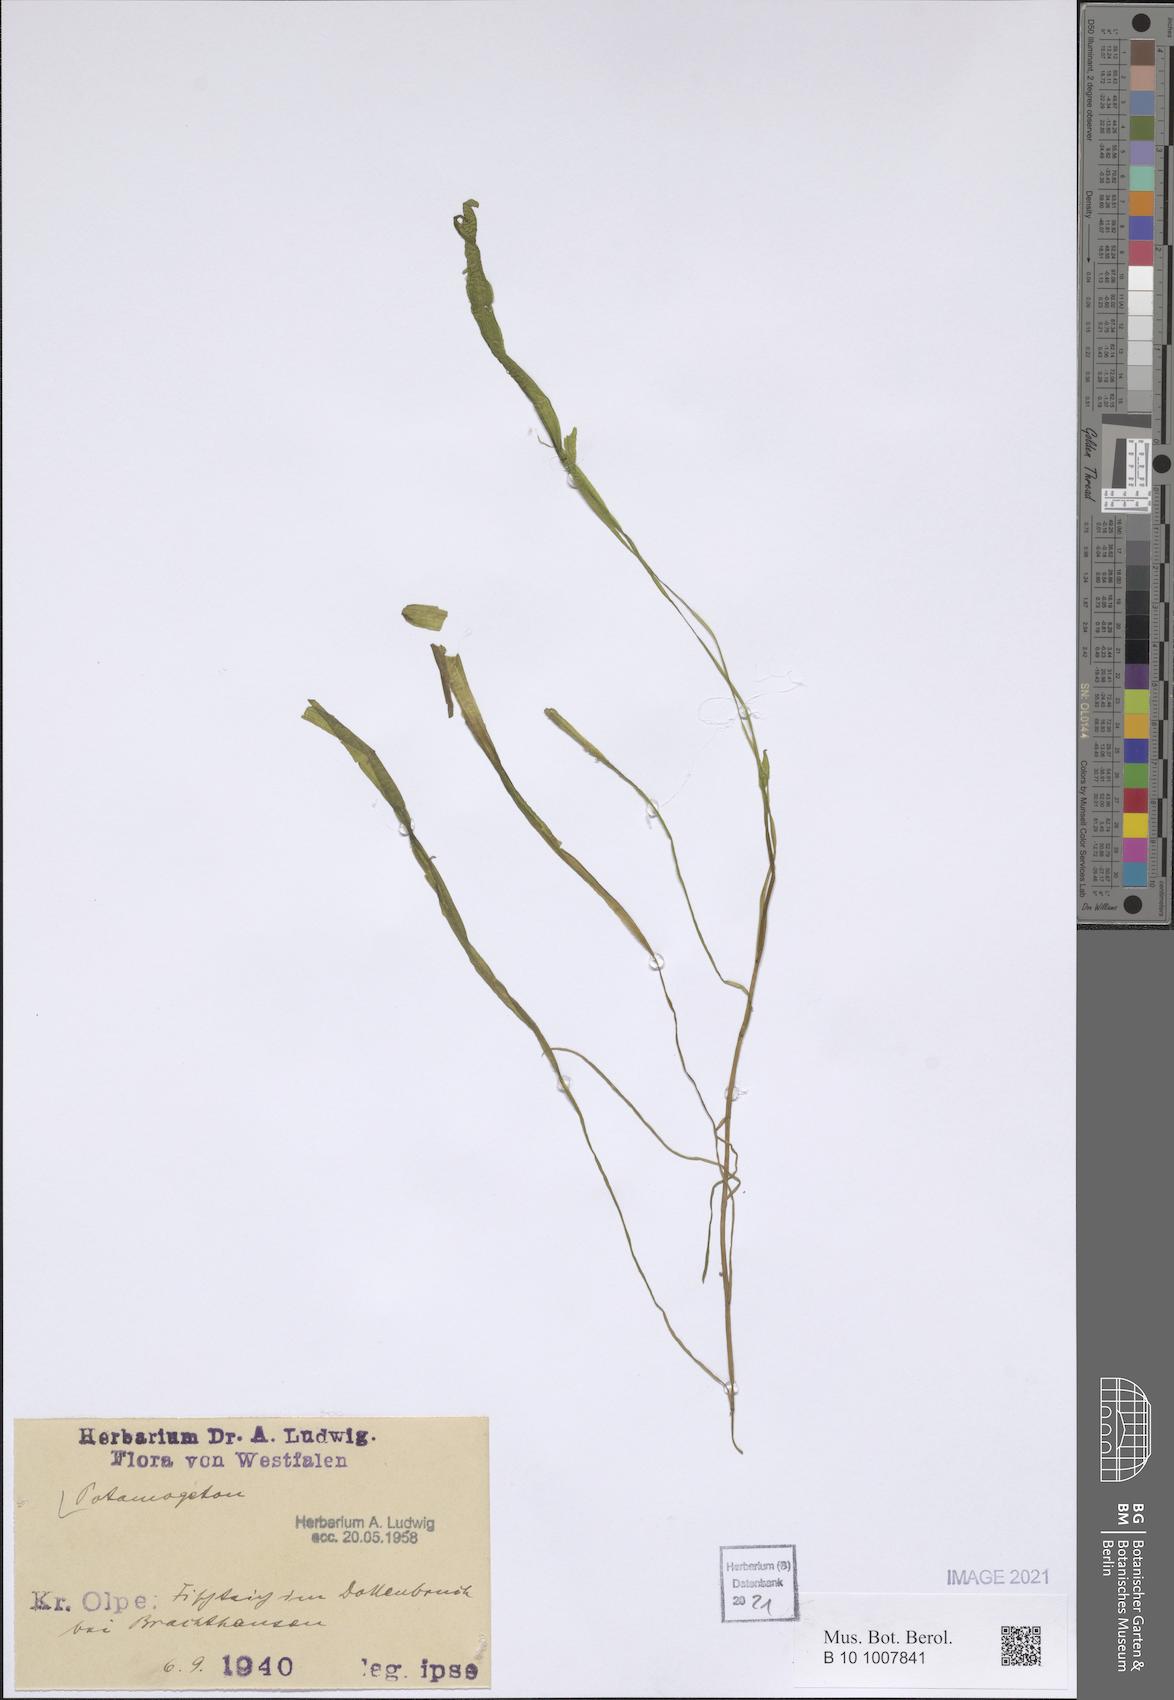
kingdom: Plantae
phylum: Tracheophyta
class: Liliopsida
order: Alismatales
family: Potamogetonaceae
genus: Potamogeton
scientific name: Potamogeton
